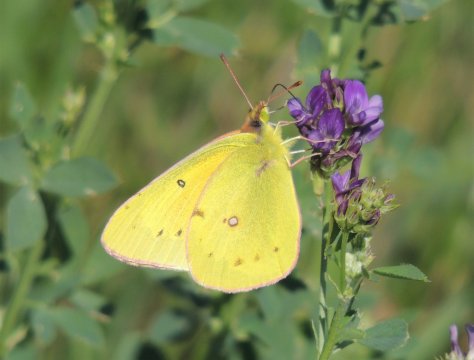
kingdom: Animalia
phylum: Arthropoda
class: Insecta
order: Lepidoptera
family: Pieridae
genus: Colias
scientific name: Colias eurytheme
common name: Orange Sulphur
